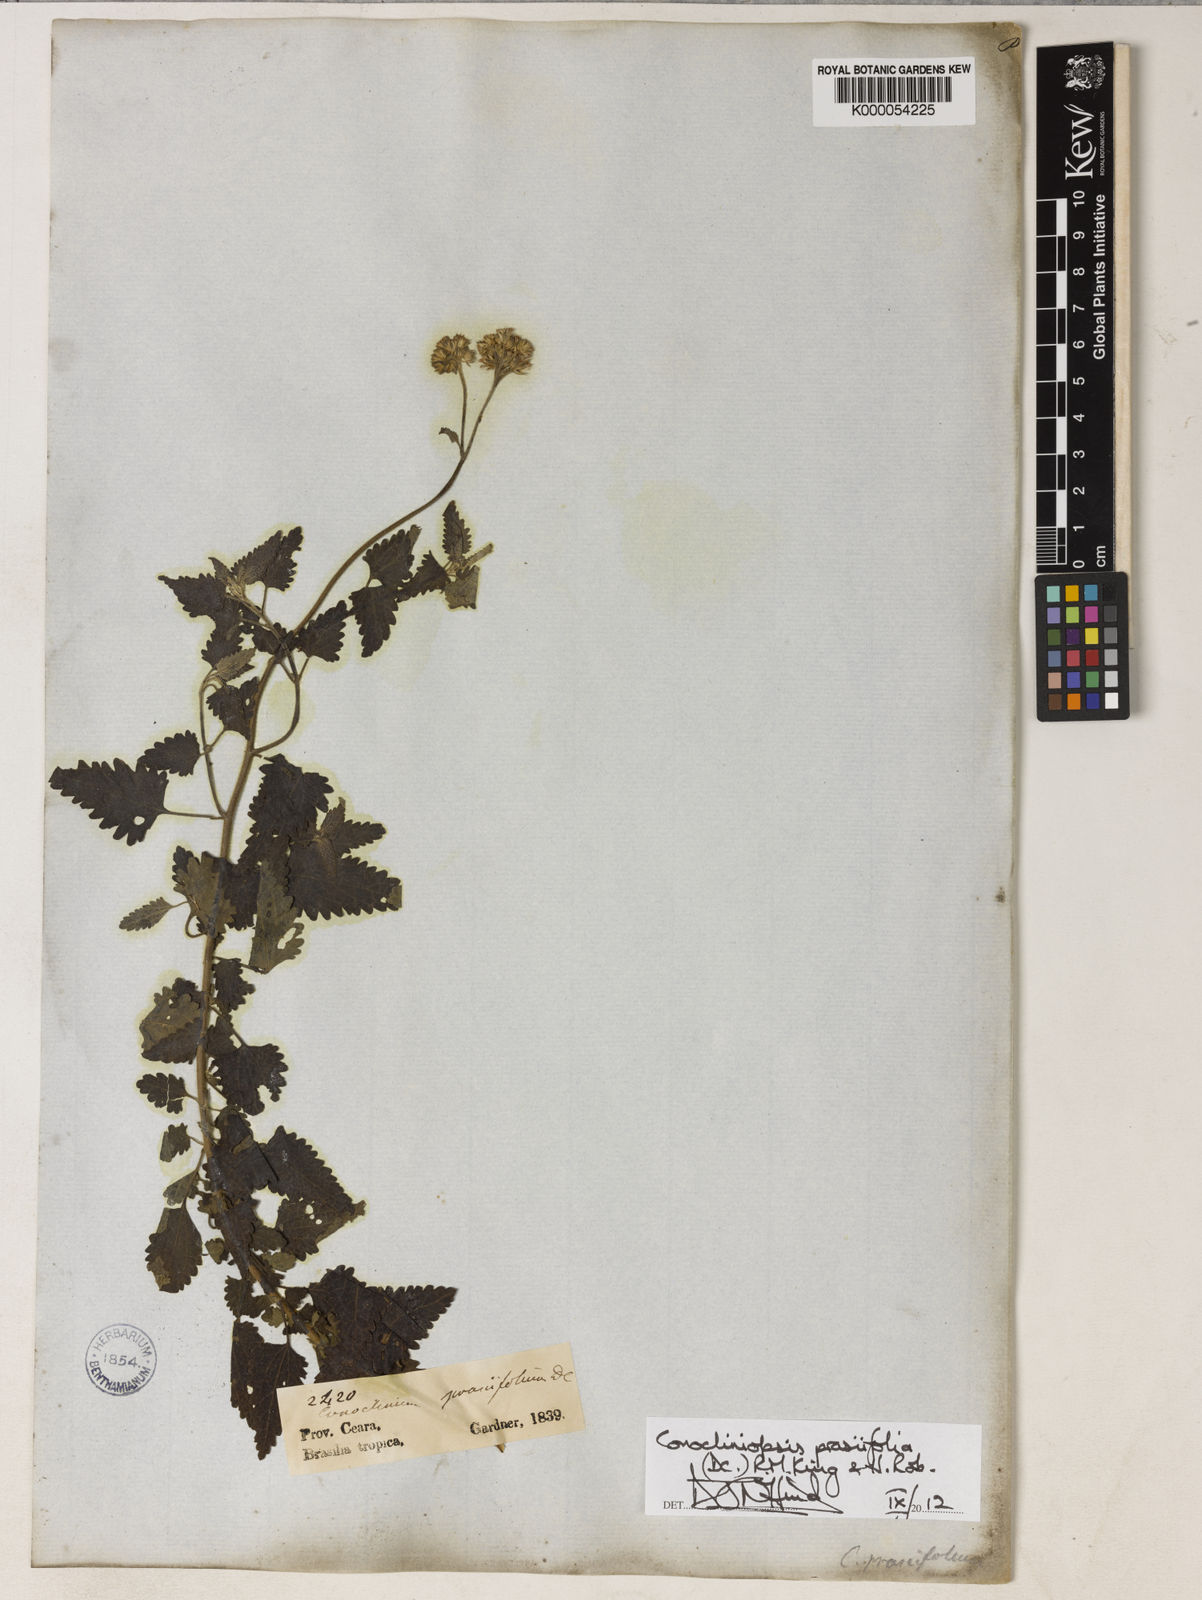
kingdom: Plantae
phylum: Tracheophyta
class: Magnoliopsida
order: Asterales
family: Asteraceae
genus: Conocliniopsis
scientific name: Conocliniopsis grossedentata
